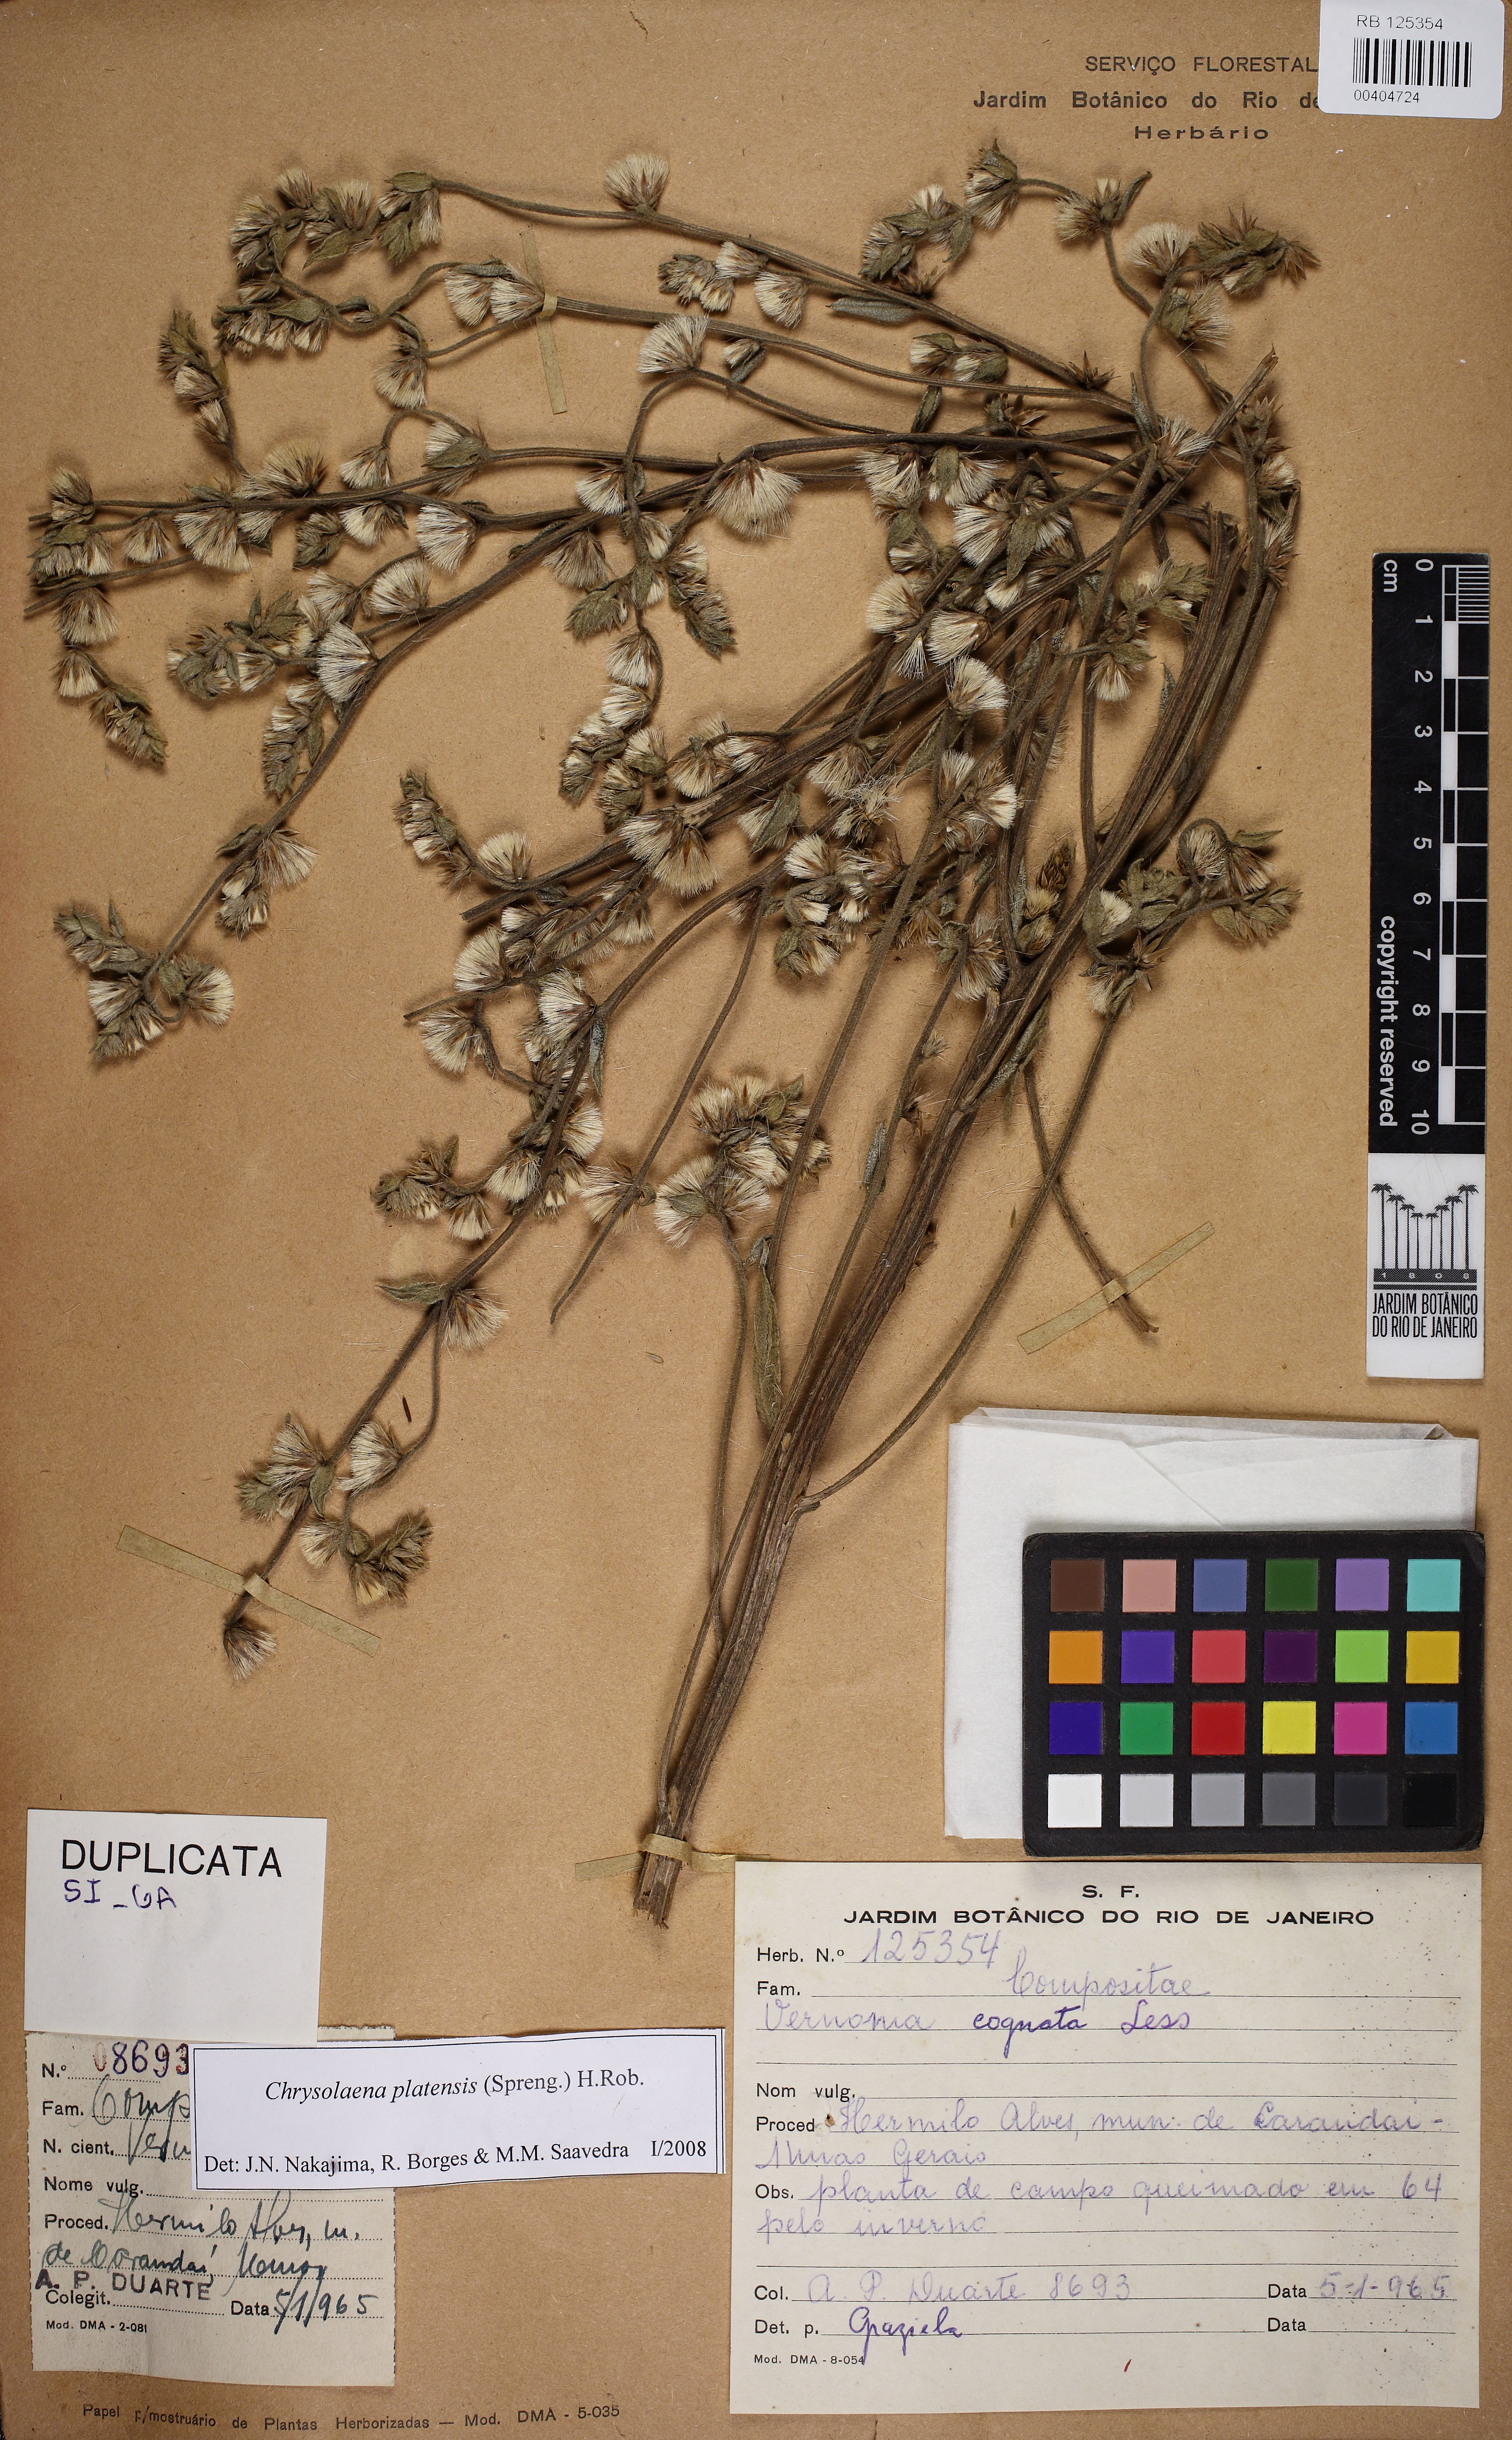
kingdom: Plantae
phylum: Tracheophyta
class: Magnoliopsida
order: Asterales
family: Asteraceae
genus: Chrysolaena
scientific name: Chrysolaena platensis
